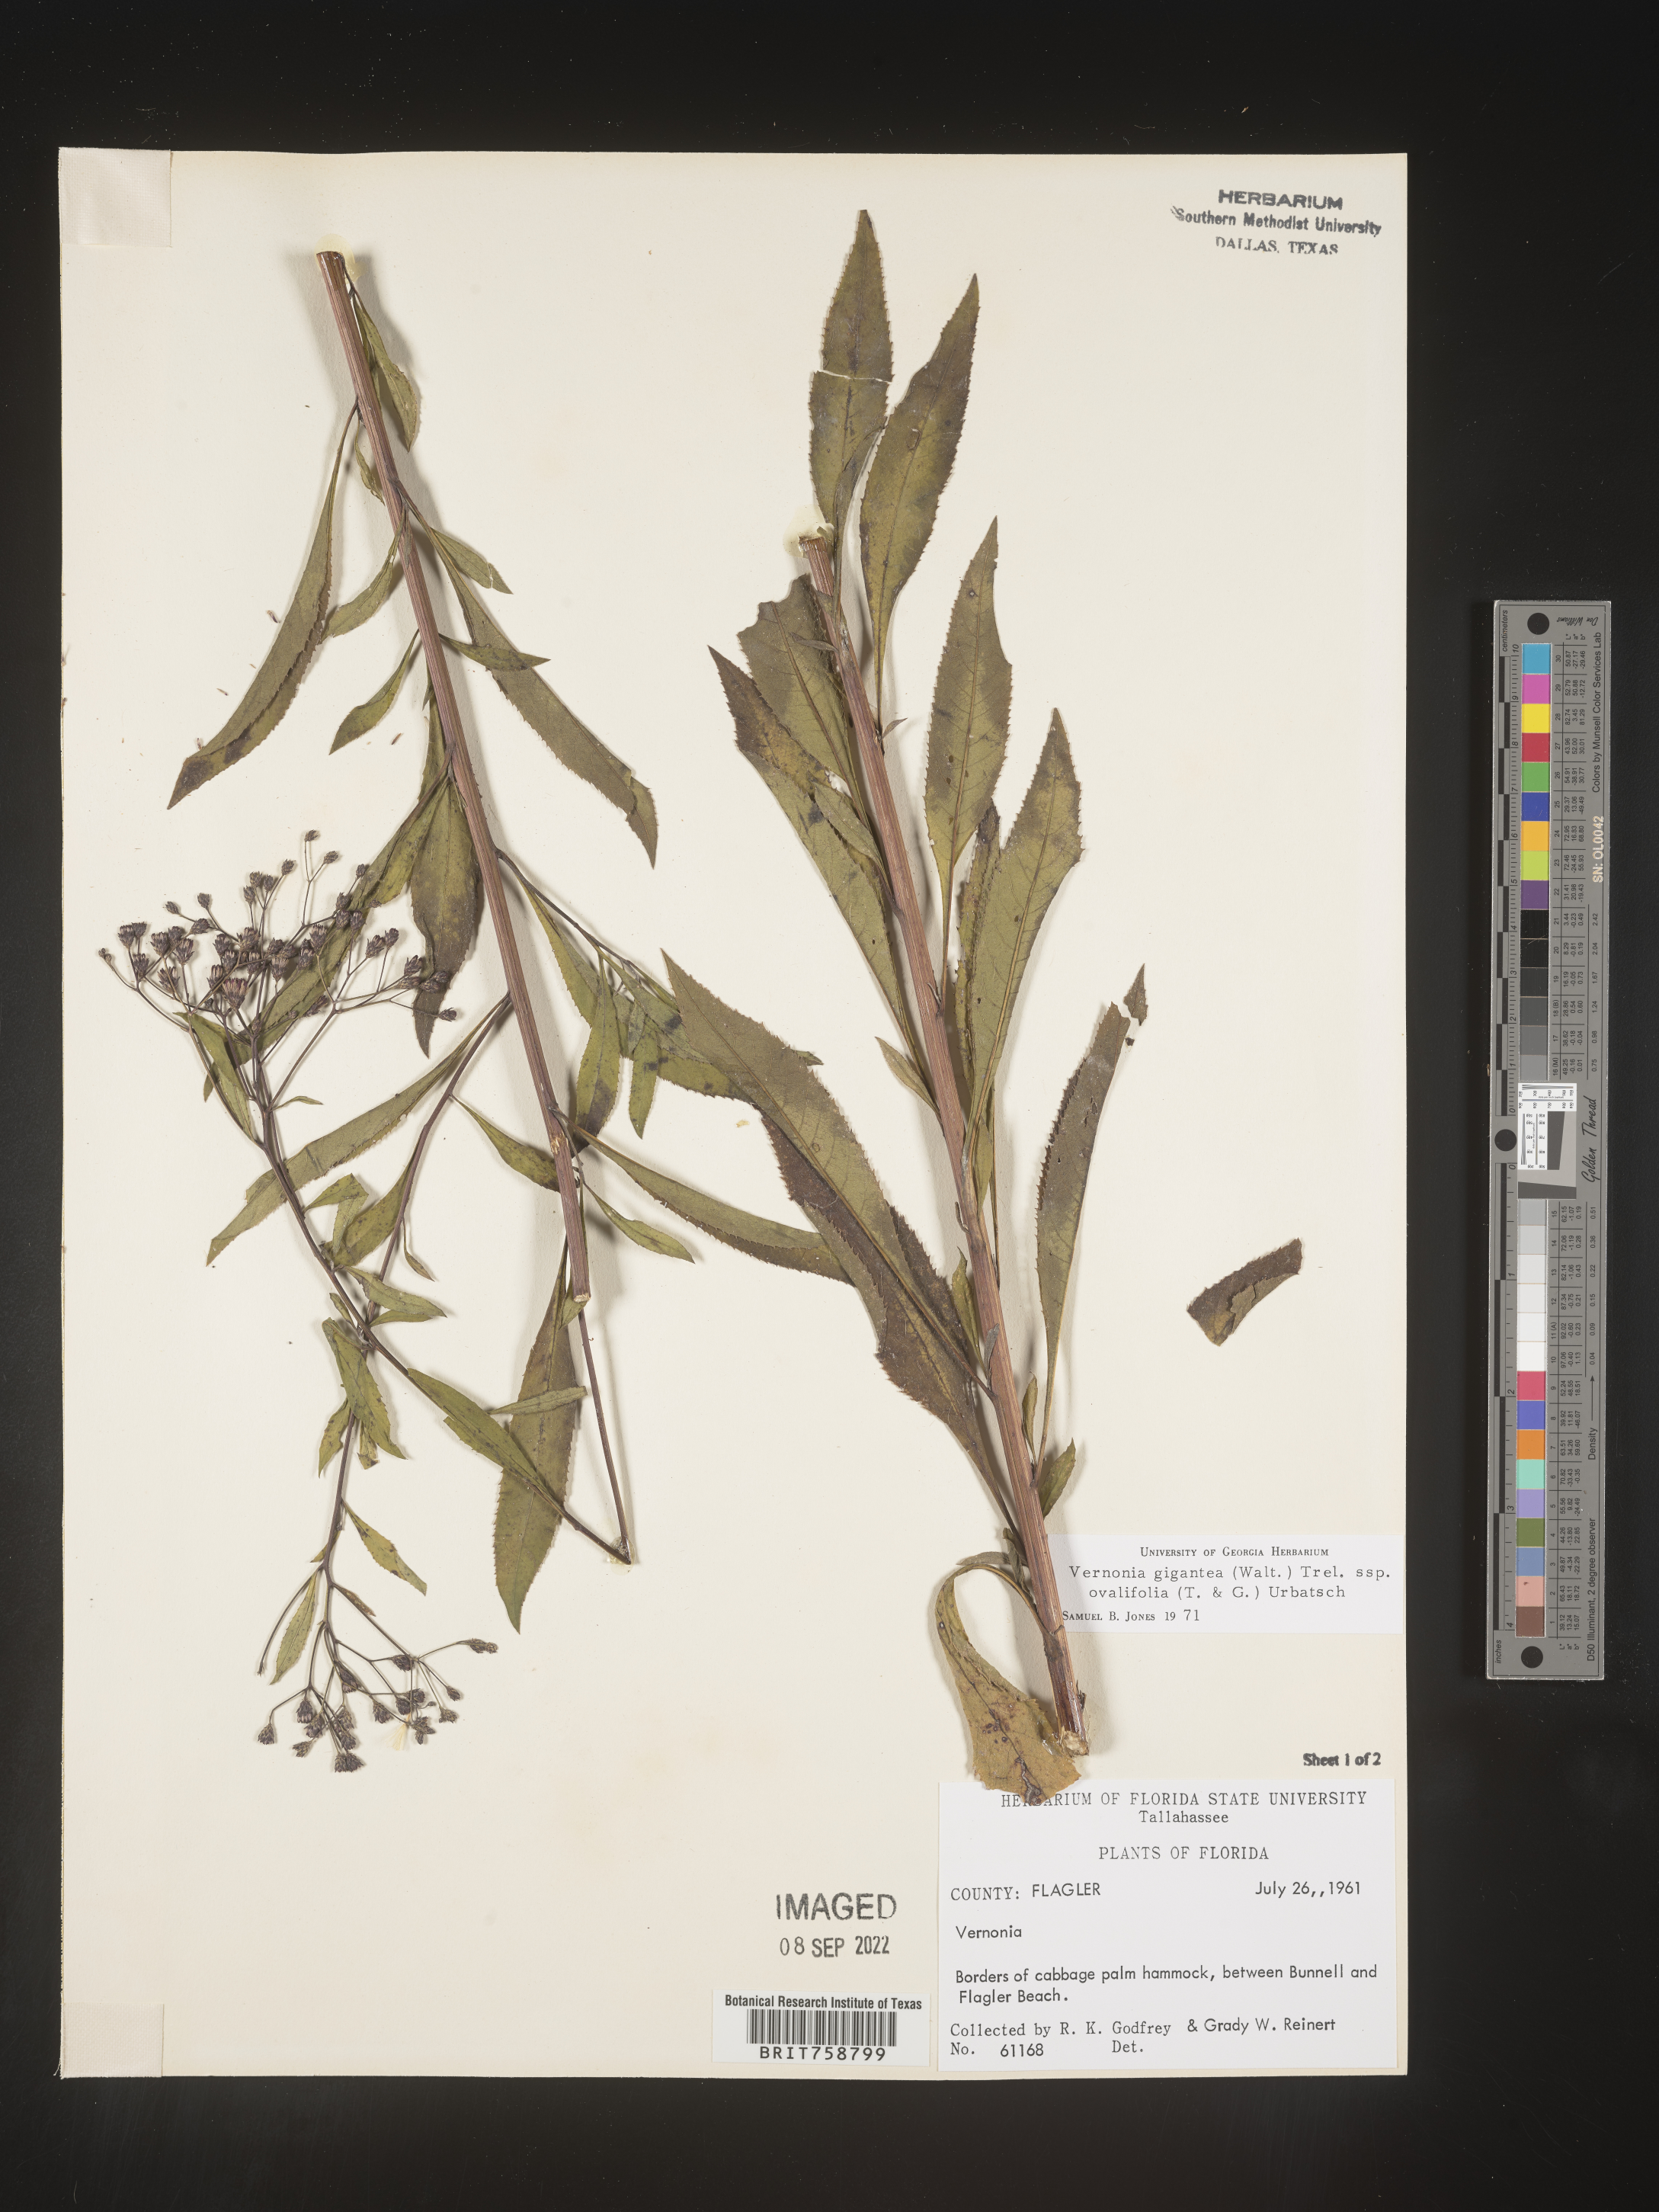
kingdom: Plantae
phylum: Tracheophyta
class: Magnoliopsida
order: Asterales
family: Asteraceae
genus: Vernonia
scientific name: Vernonia gigantea
